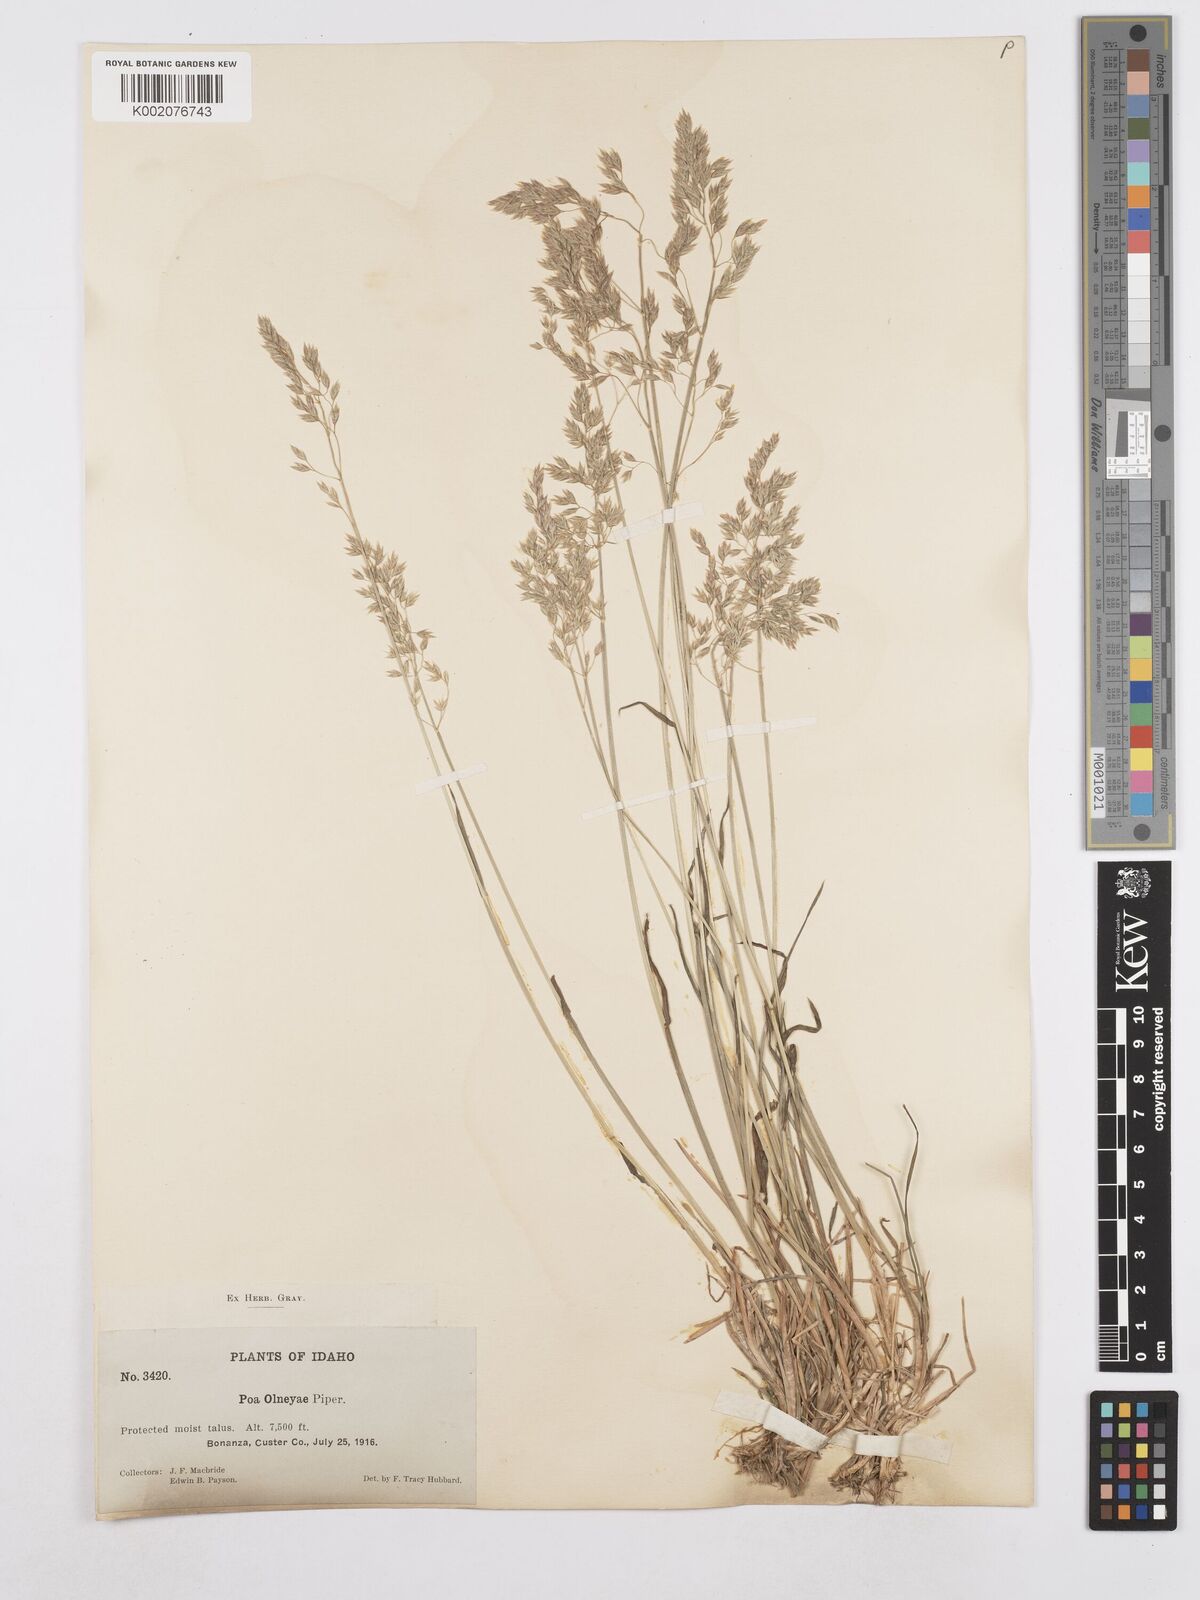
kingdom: Plantae
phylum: Tracheophyta
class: Liliopsida
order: Poales
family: Poaceae
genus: Poa
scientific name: Poa wheeleri
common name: Wheeler's bluegrass
